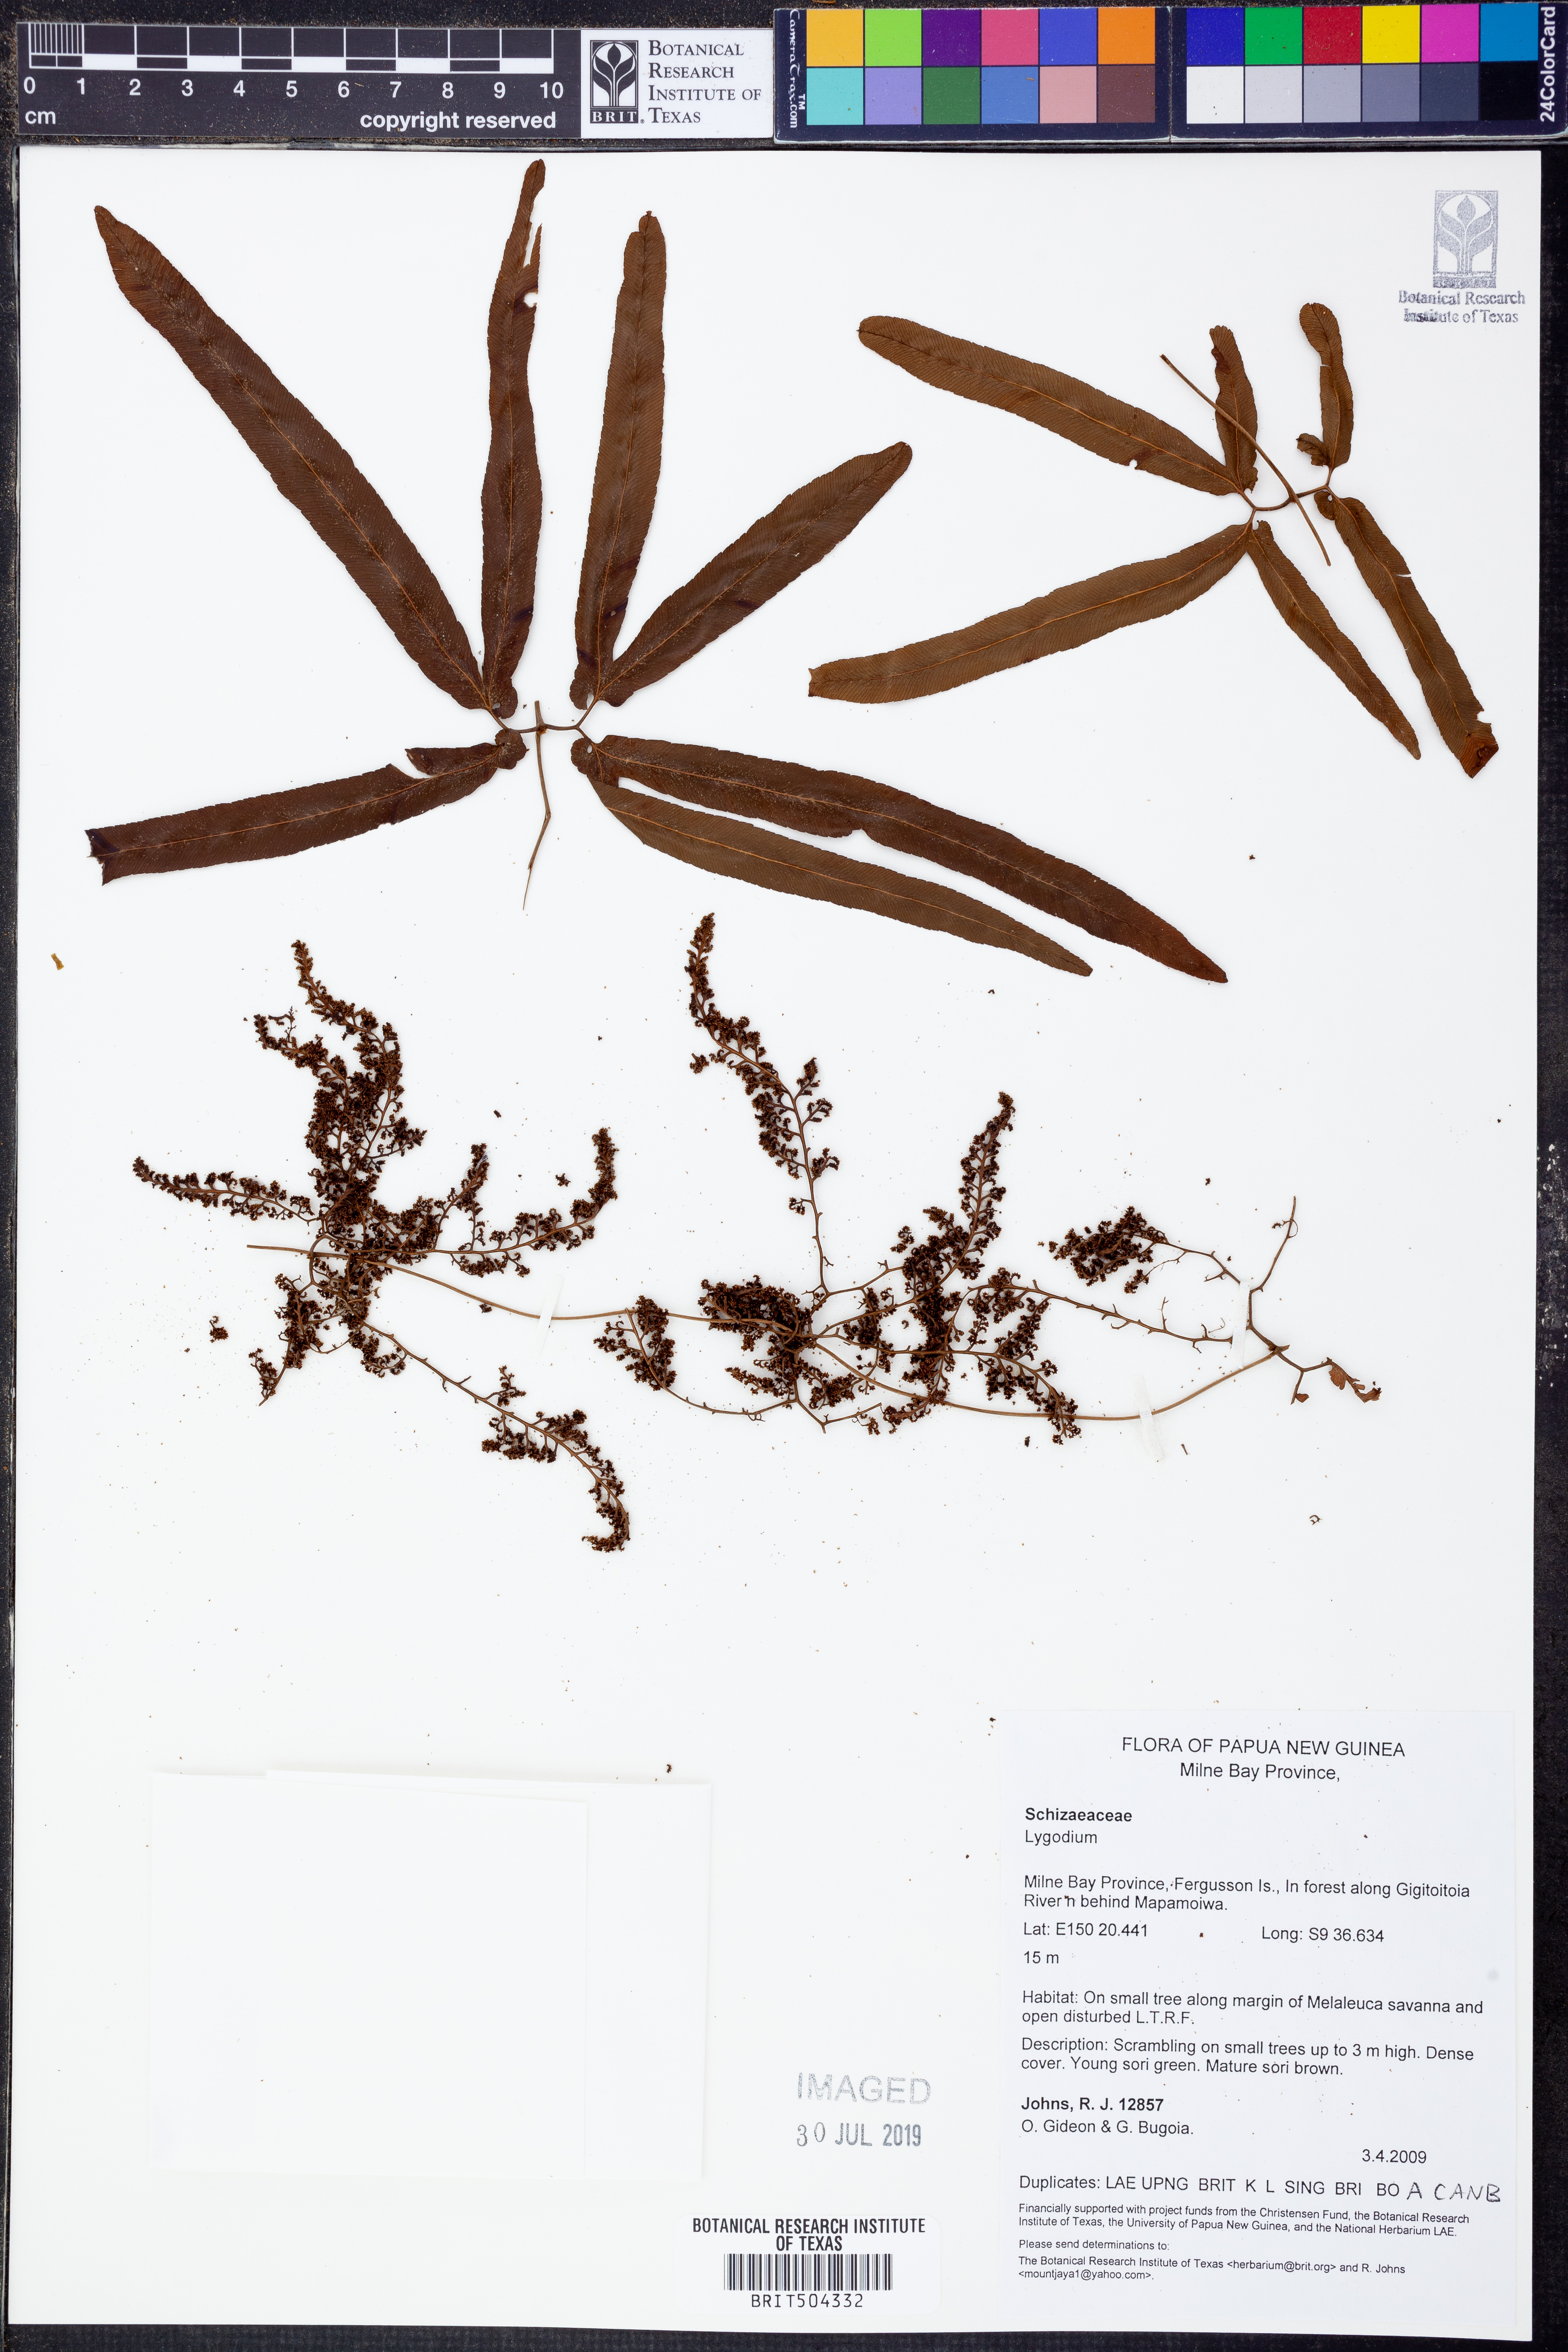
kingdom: Plantae
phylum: Tracheophyta
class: Polypodiopsida
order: Schizaeales
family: Lygodiaceae
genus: Lygodium
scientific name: Lygodium
